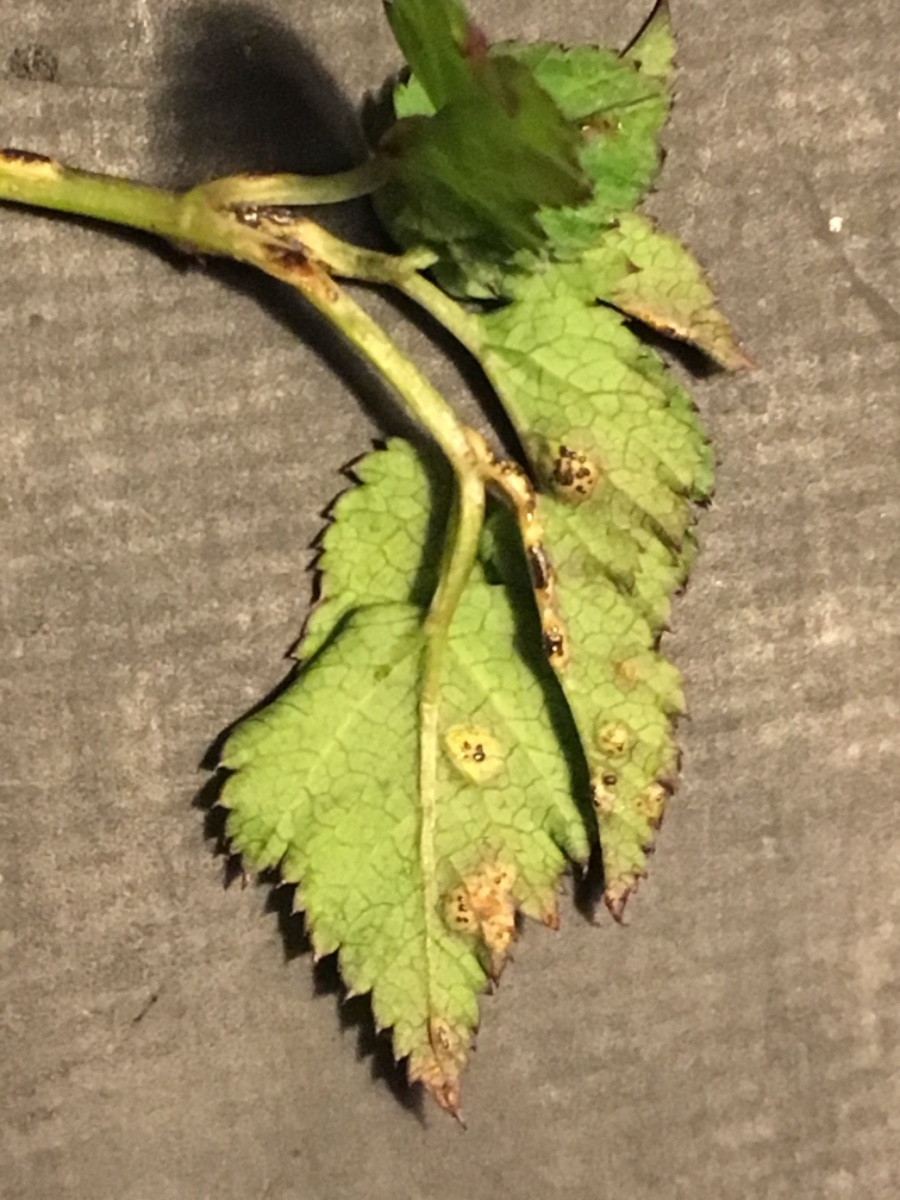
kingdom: Fungi
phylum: Basidiomycota
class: Pucciniomycetes
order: Pucciniales
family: Pucciniaceae
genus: Puccinia
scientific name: Puccinia
